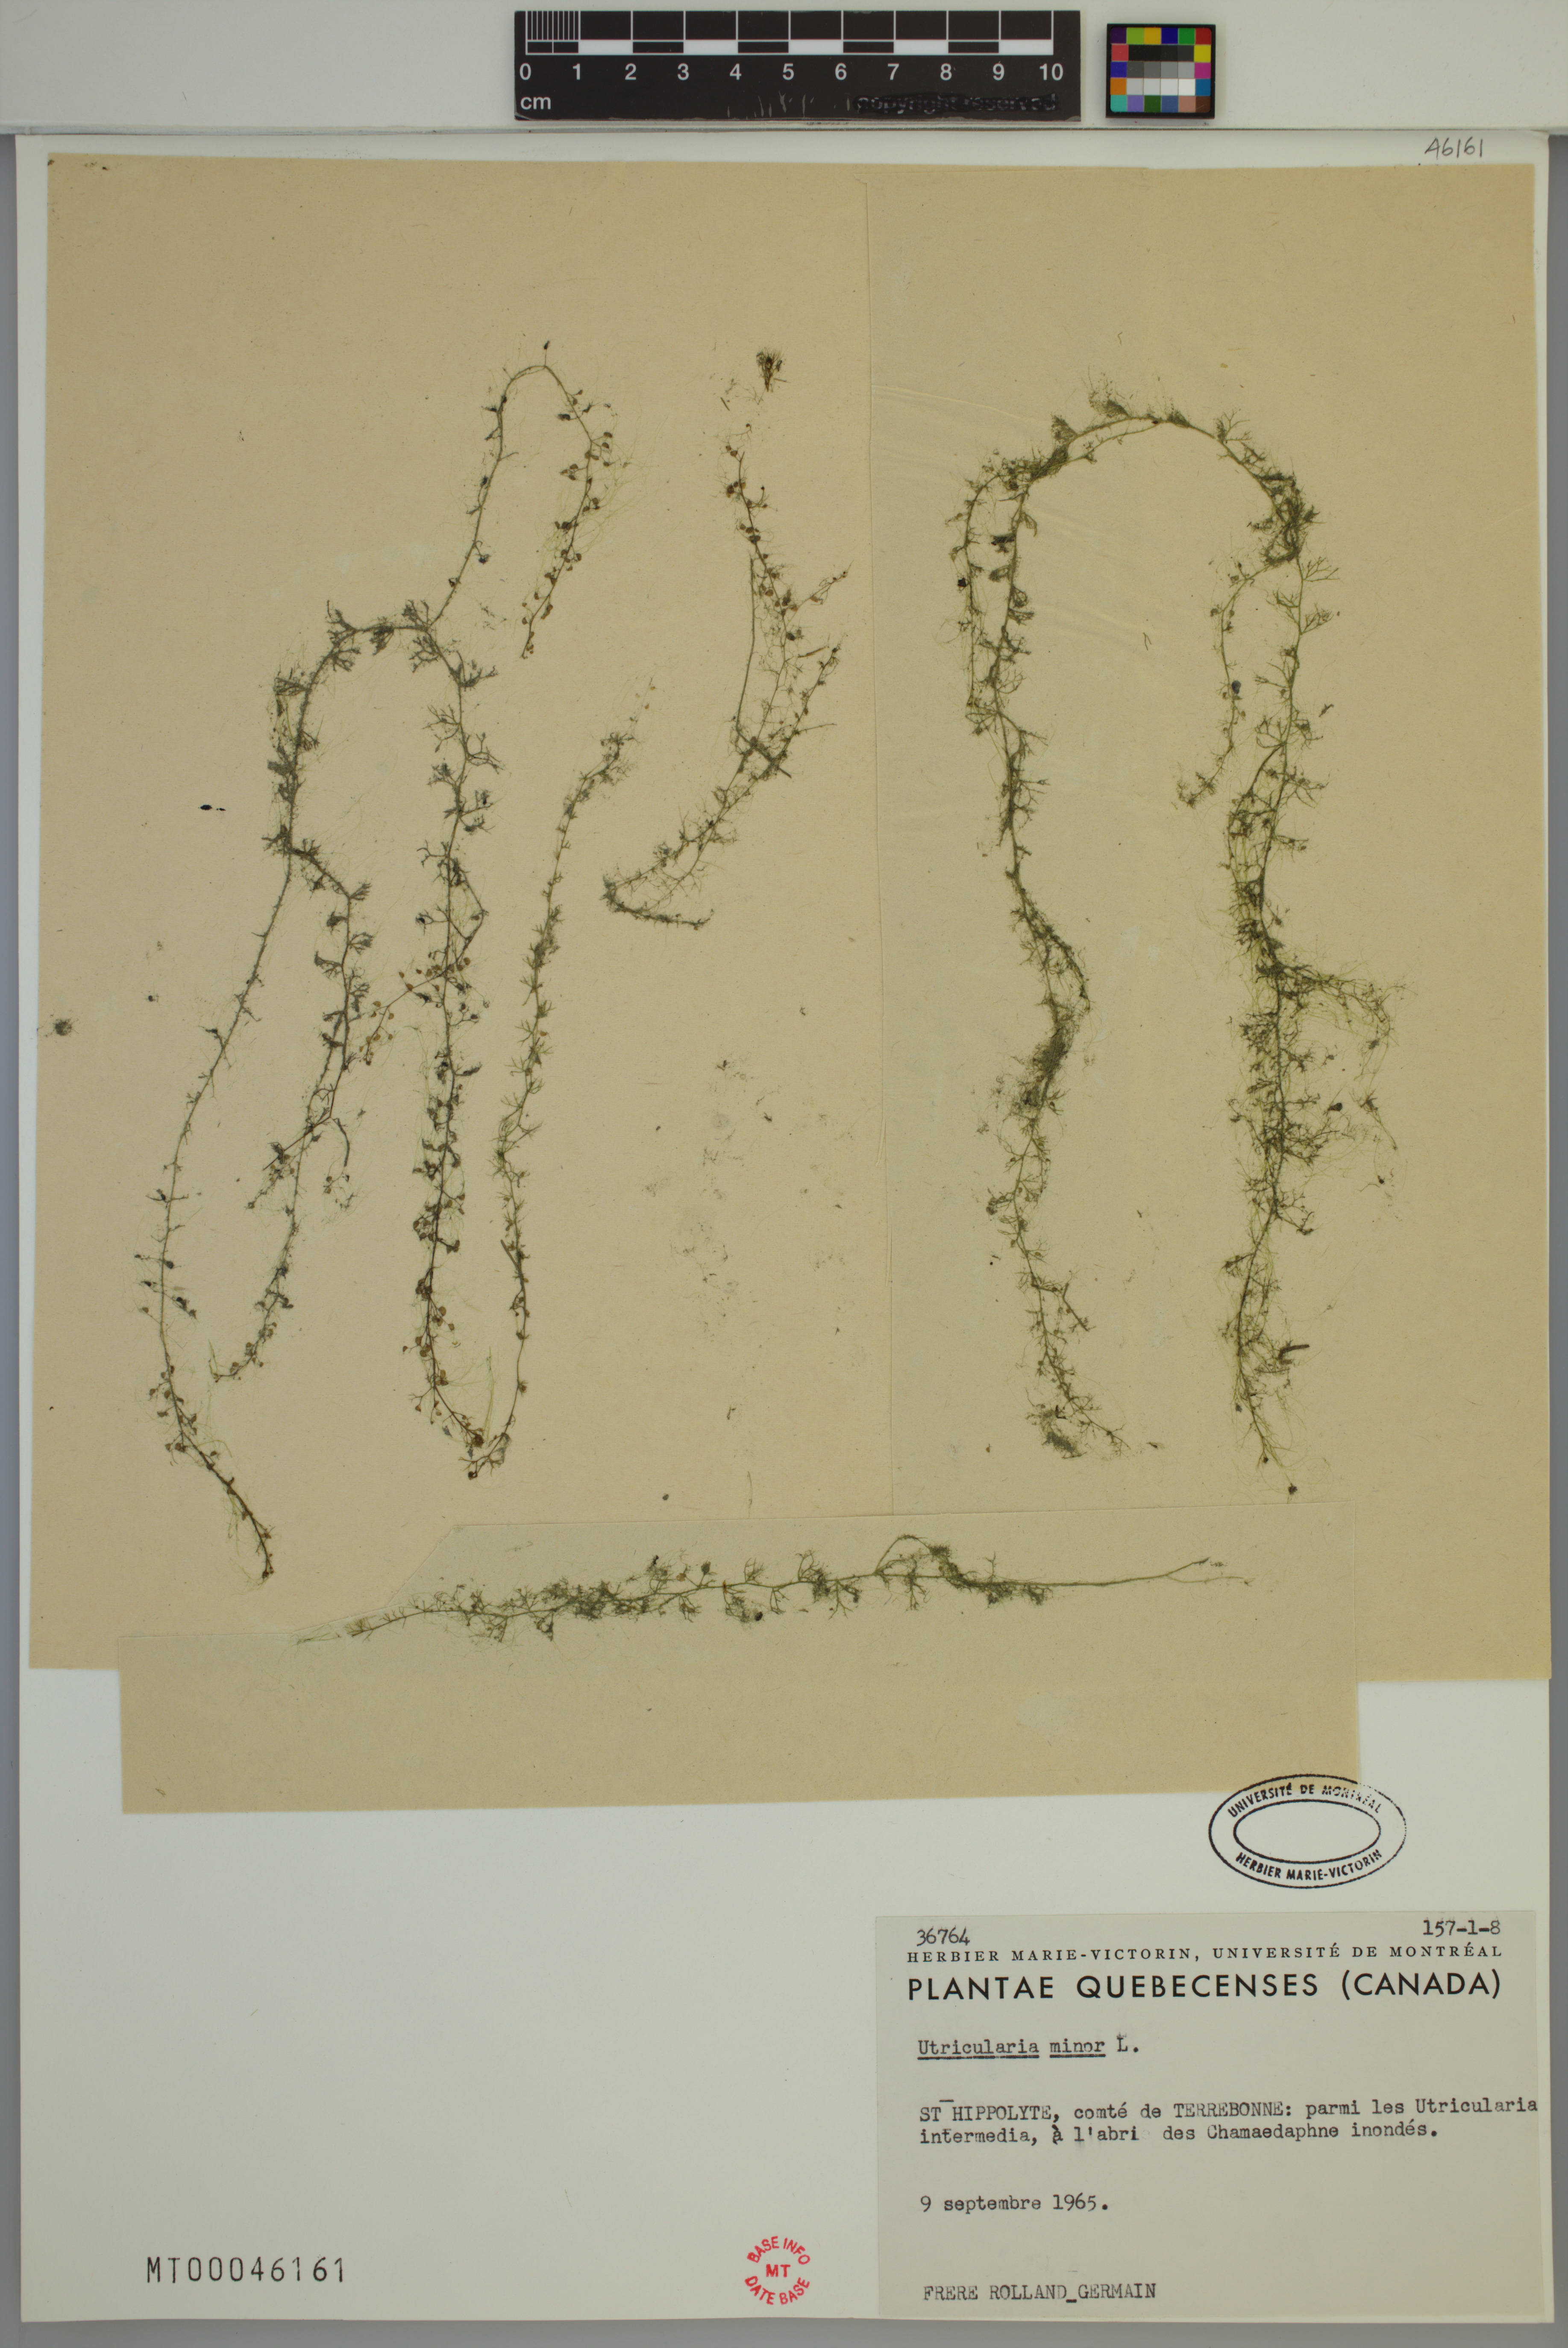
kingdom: Plantae
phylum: Tracheophyta
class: Magnoliopsida
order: Lamiales
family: Lentibulariaceae
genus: Utricularia
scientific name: Utricularia minor
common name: Lesser bladderwort
